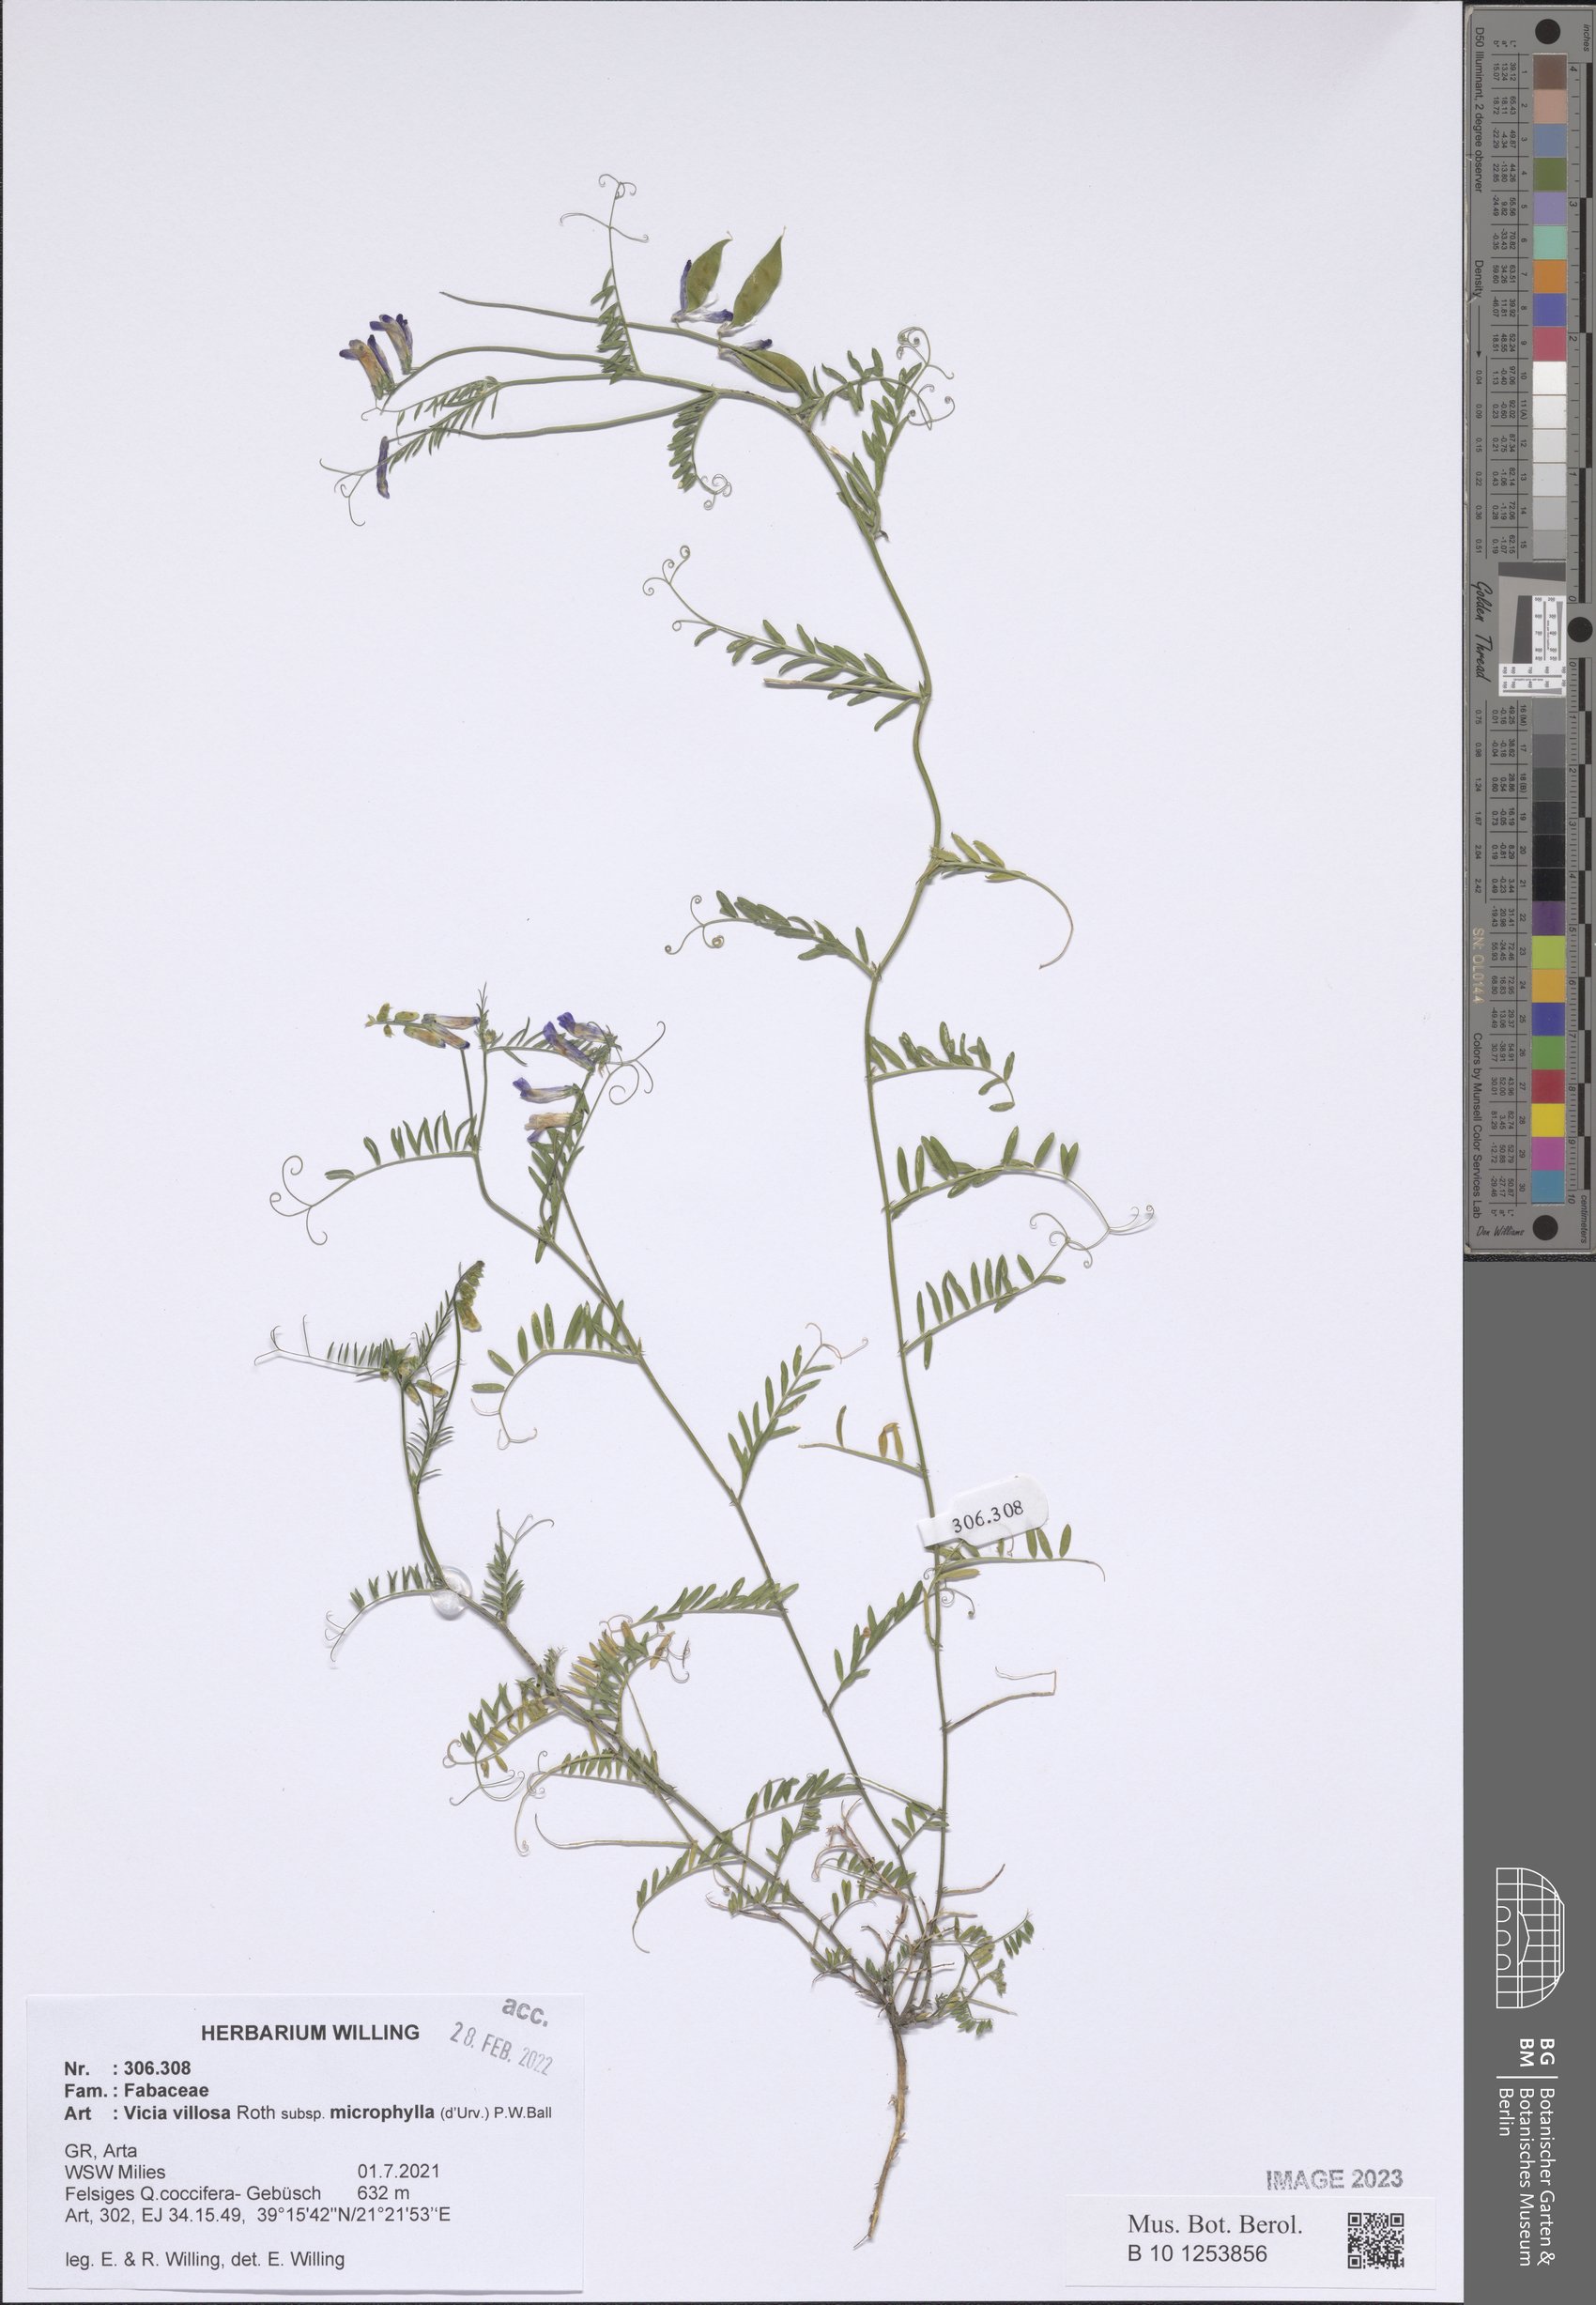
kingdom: Plantae
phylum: Tracheophyta
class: Magnoliopsida
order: Fabales
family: Fabaceae
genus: Vicia
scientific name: Vicia villosa
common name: Fodder vetch
